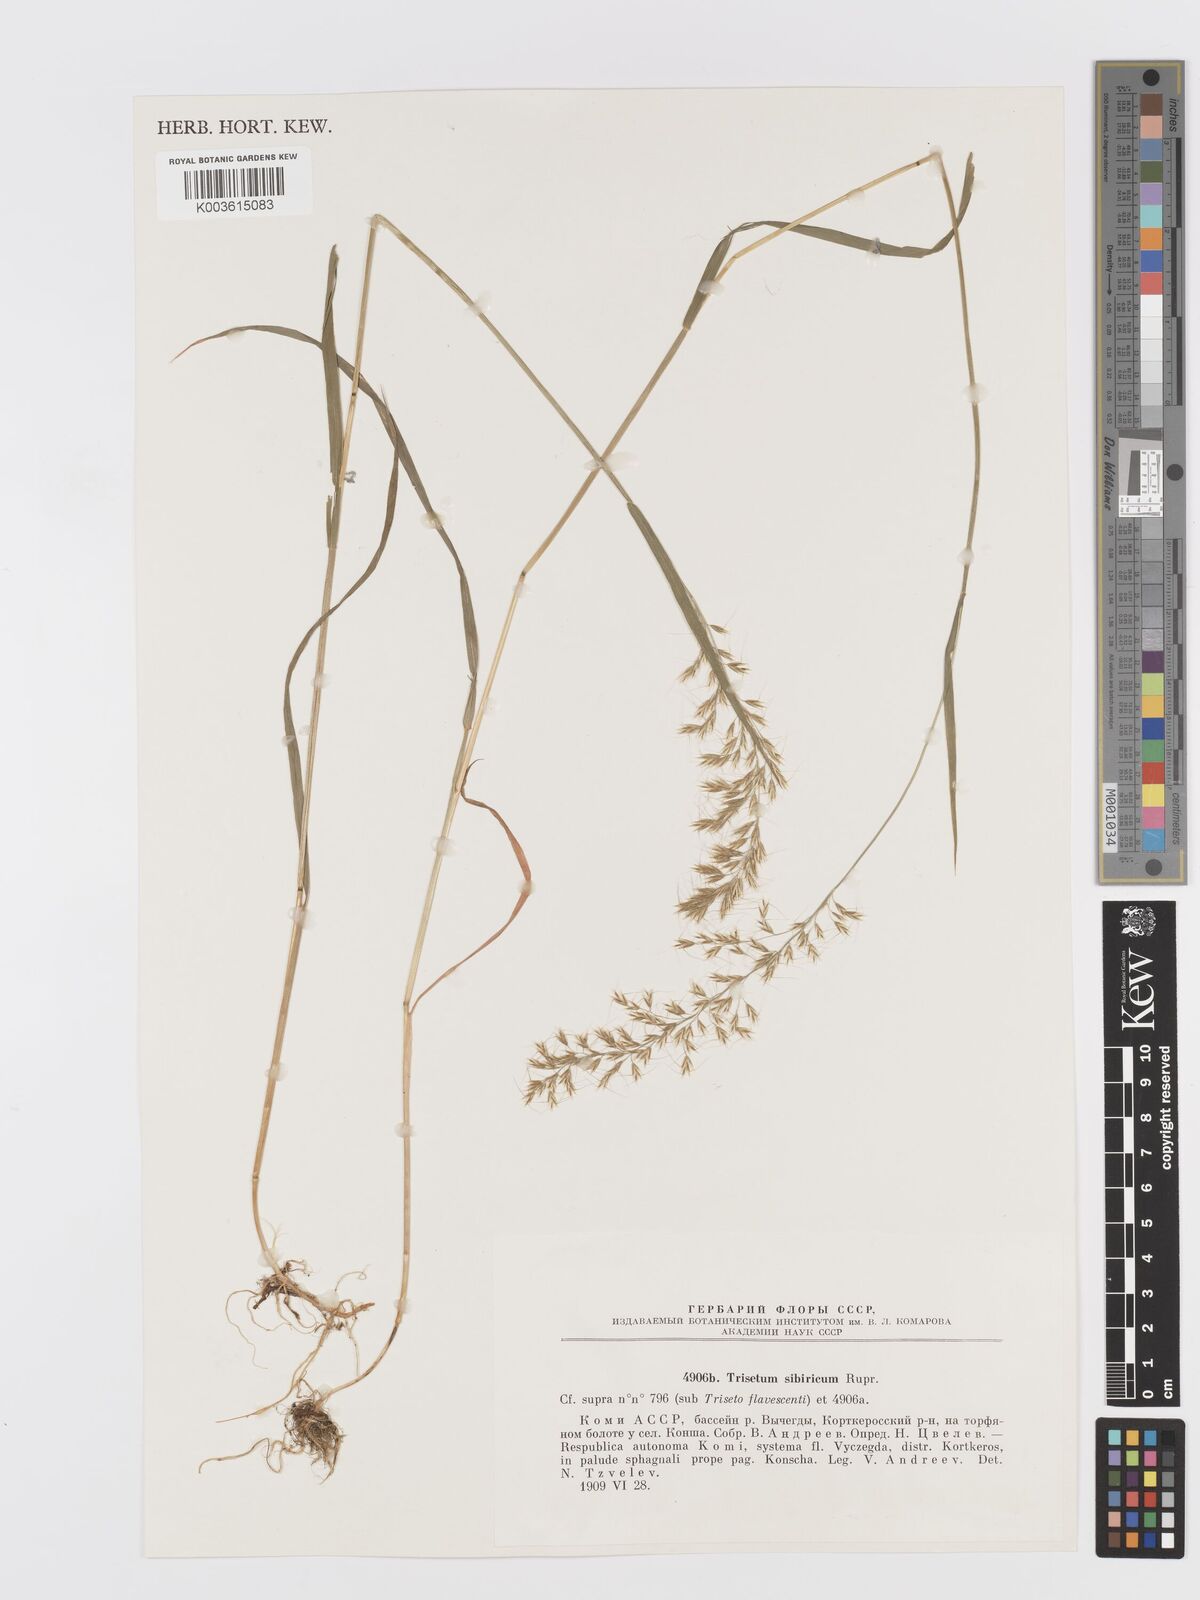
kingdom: Plantae
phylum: Tracheophyta
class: Liliopsida
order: Poales
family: Poaceae
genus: Sibirotrisetum
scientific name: Sibirotrisetum sibiricum
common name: Siberian false oat
